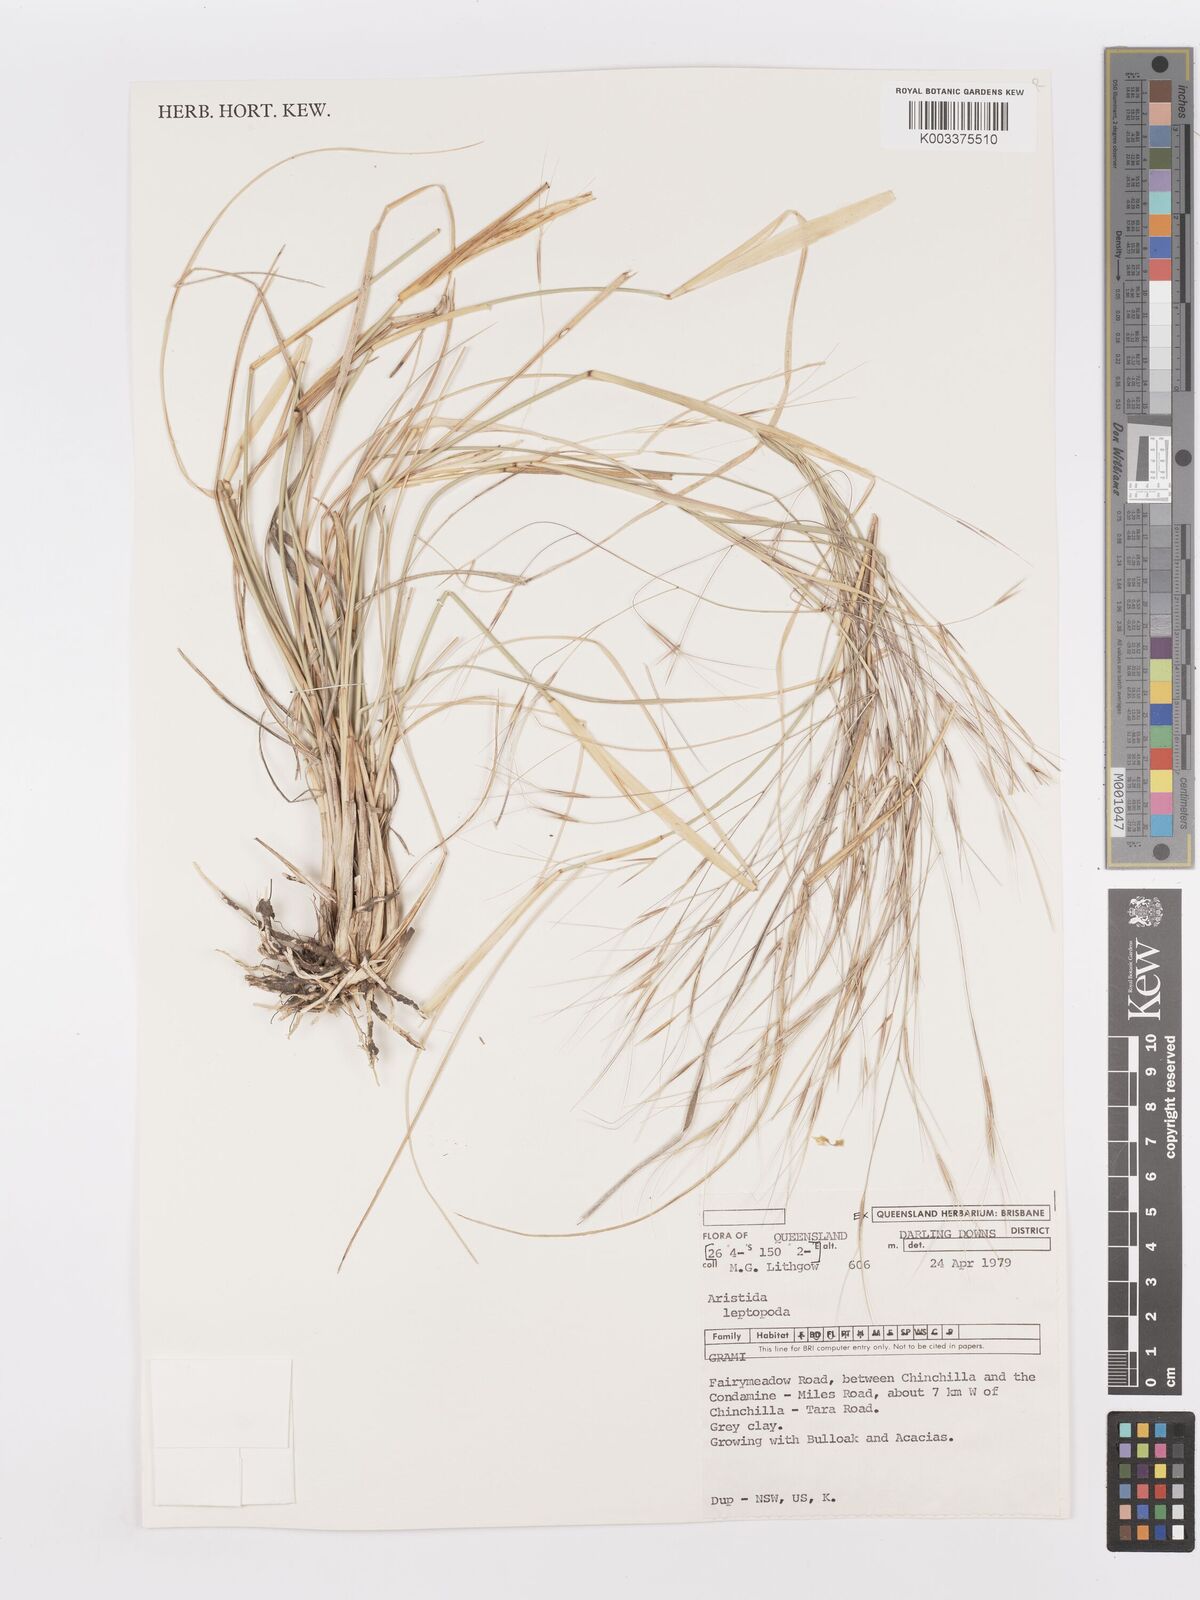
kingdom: Plantae
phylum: Tracheophyta
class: Liliopsida
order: Poales
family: Poaceae
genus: Aristida
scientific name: Aristida leptopoda
